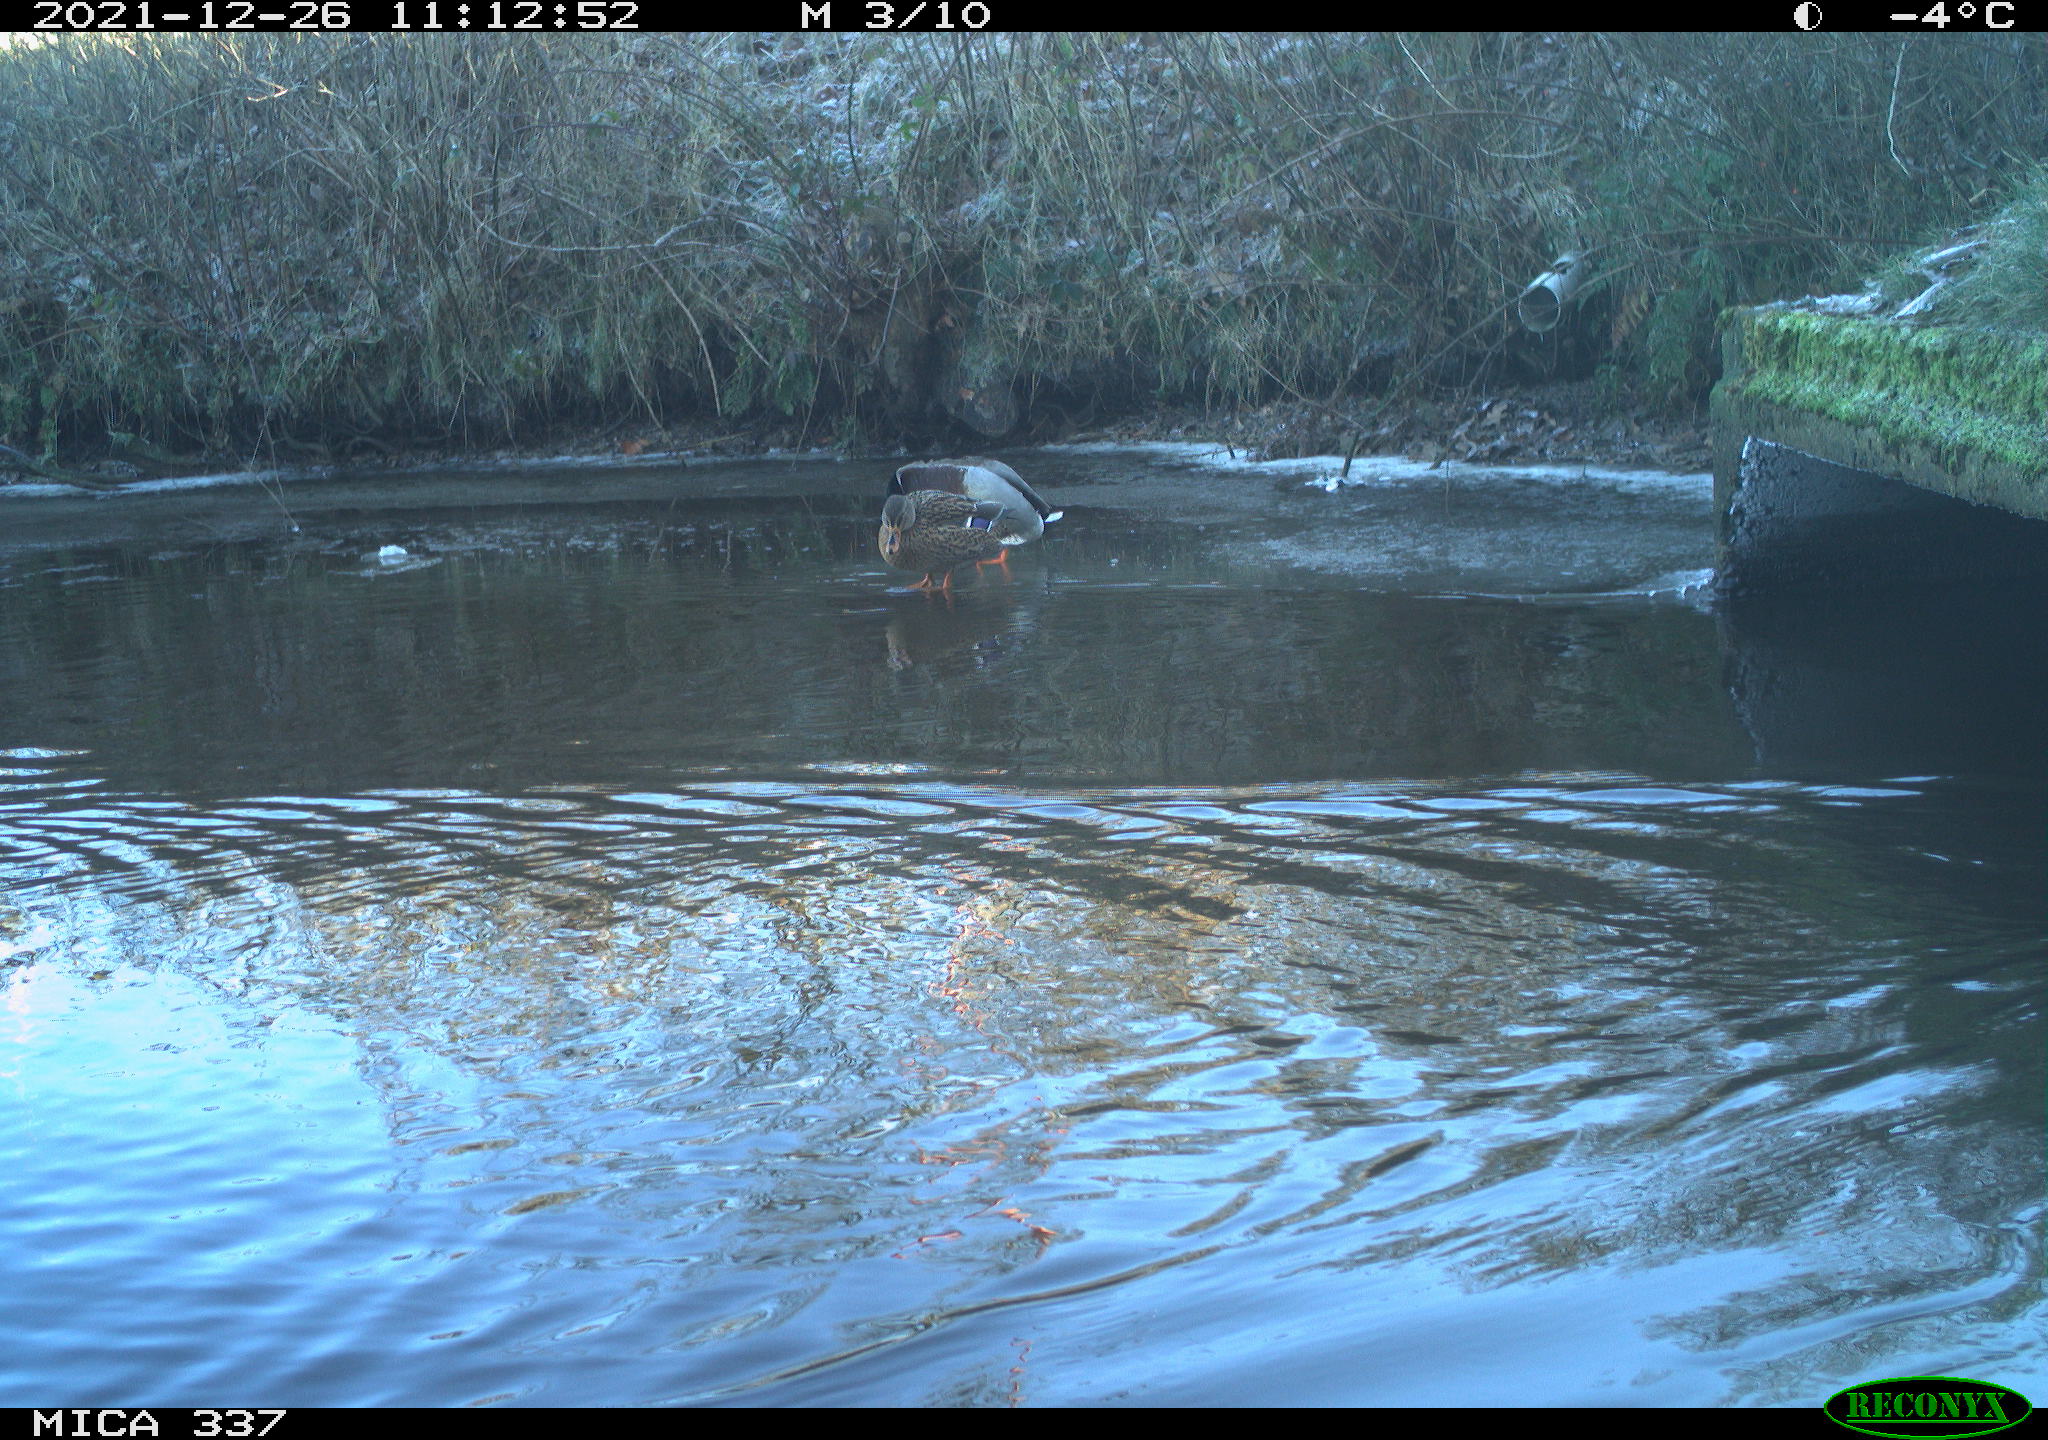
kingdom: Animalia
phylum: Chordata
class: Aves
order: Anseriformes
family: Anatidae
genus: Anas
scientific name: Anas platyrhynchos
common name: Mallard
